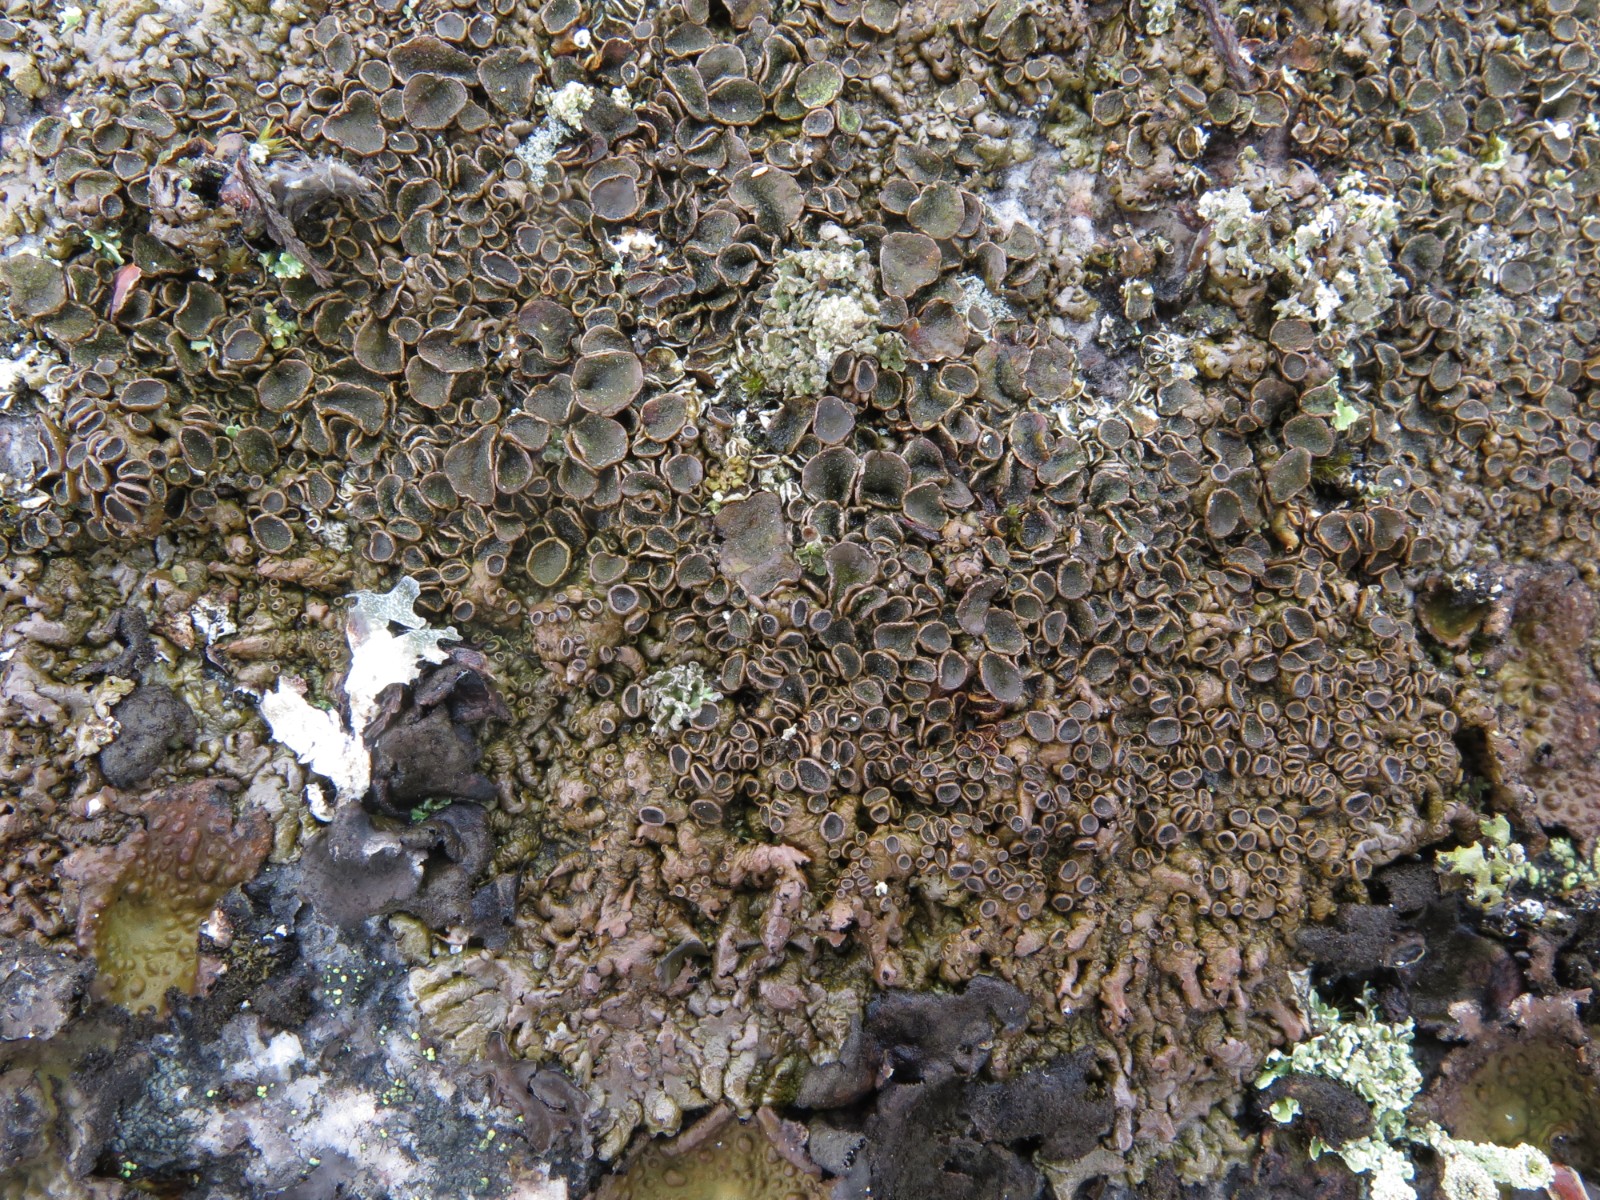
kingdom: Fungi
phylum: Ascomycota
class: Lecanoromycetes
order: Lecanorales
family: Parmeliaceae
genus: Xanthoparmelia
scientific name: Xanthoparmelia pulla
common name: mørkebrun skållav
